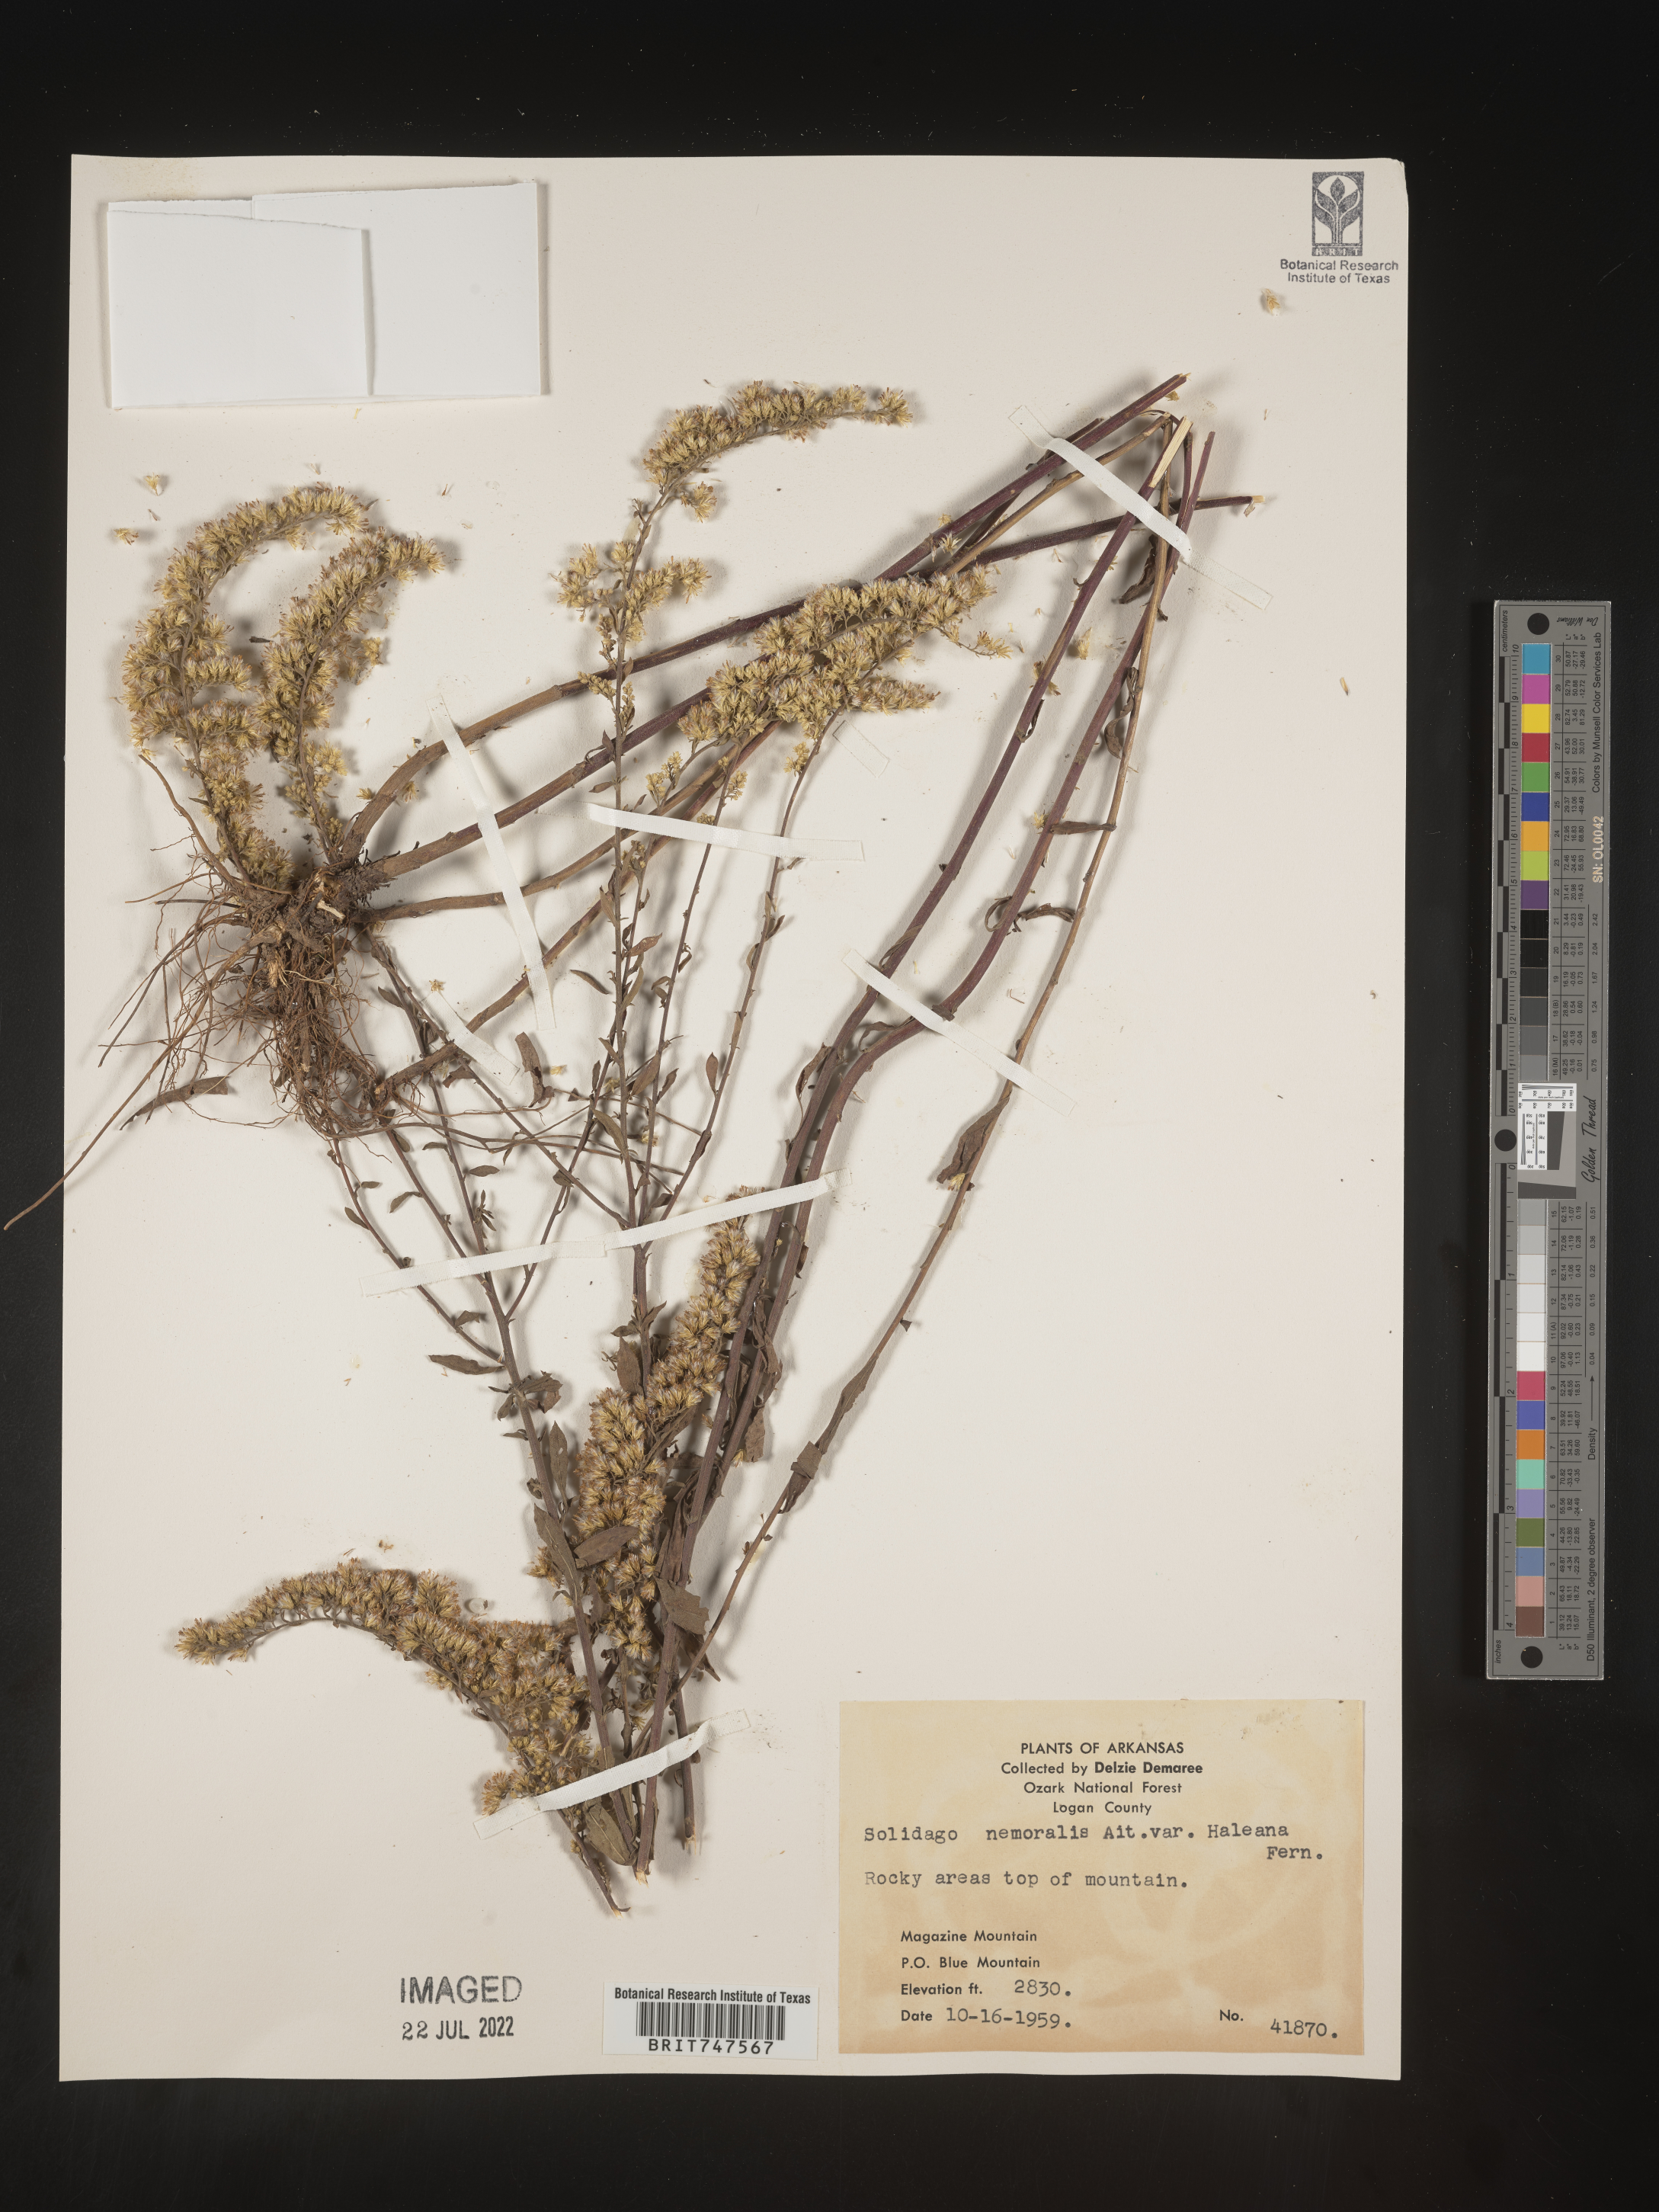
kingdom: Plantae
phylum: Tracheophyta
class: Magnoliopsida
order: Asterales
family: Asteraceae
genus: Solidago
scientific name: Solidago nemoralis
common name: Grey goldenrod
